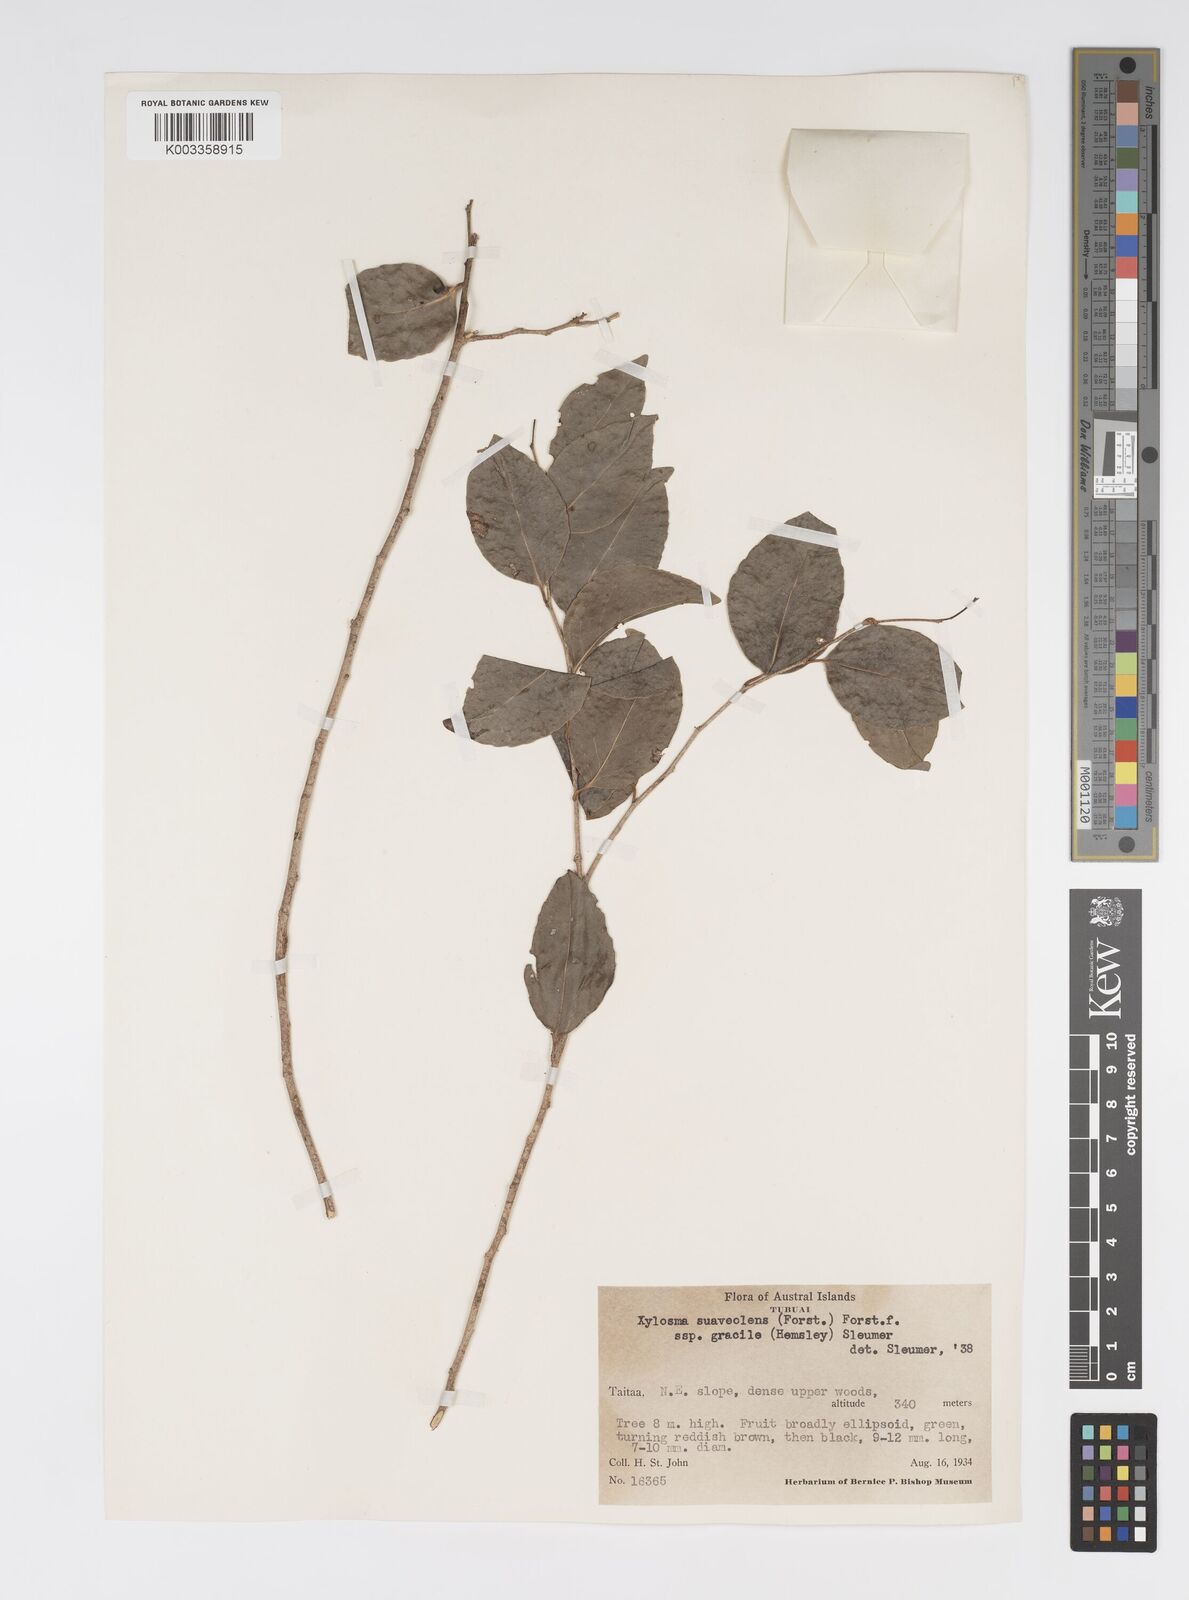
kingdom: Plantae
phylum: Tracheophyta
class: Magnoliopsida
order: Malpighiales
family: Salicaceae
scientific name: Salicaceae
